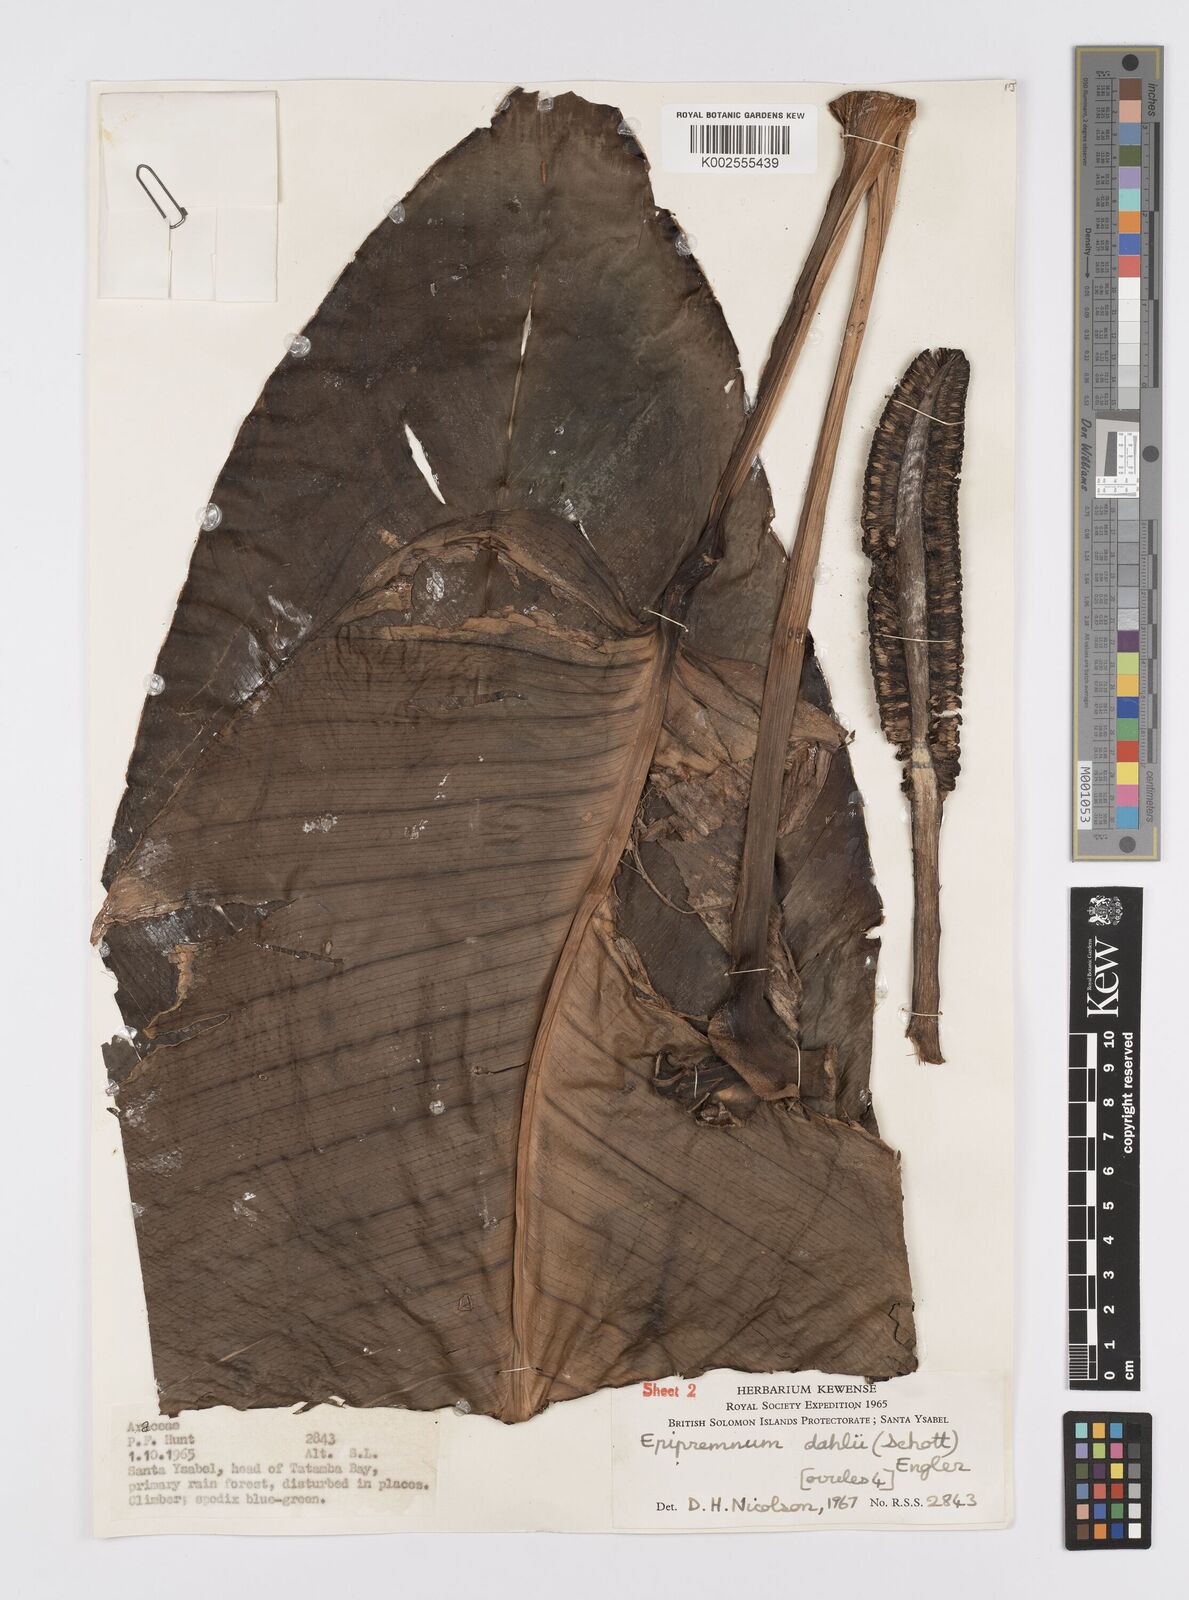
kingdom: Plantae
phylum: Tracheophyta
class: Liliopsida
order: Alismatales
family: Araceae
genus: Epipremnum
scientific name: Epipremnum dahlii
